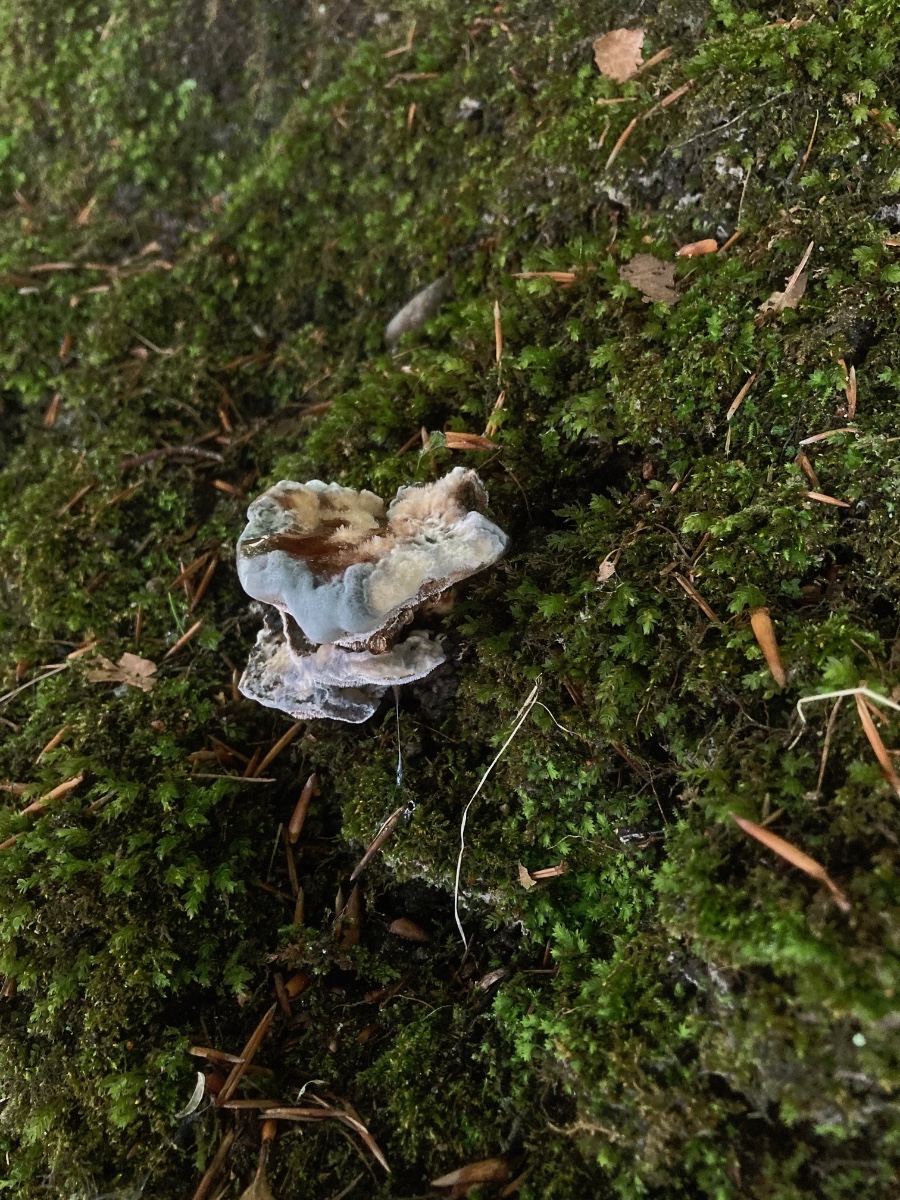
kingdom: Fungi
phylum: Basidiomycota
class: Agaricomycetes
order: Thelephorales
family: Bankeraceae
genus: Hydnellum
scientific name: Hydnellum caeruleum
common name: blålig korkpigsvamp
